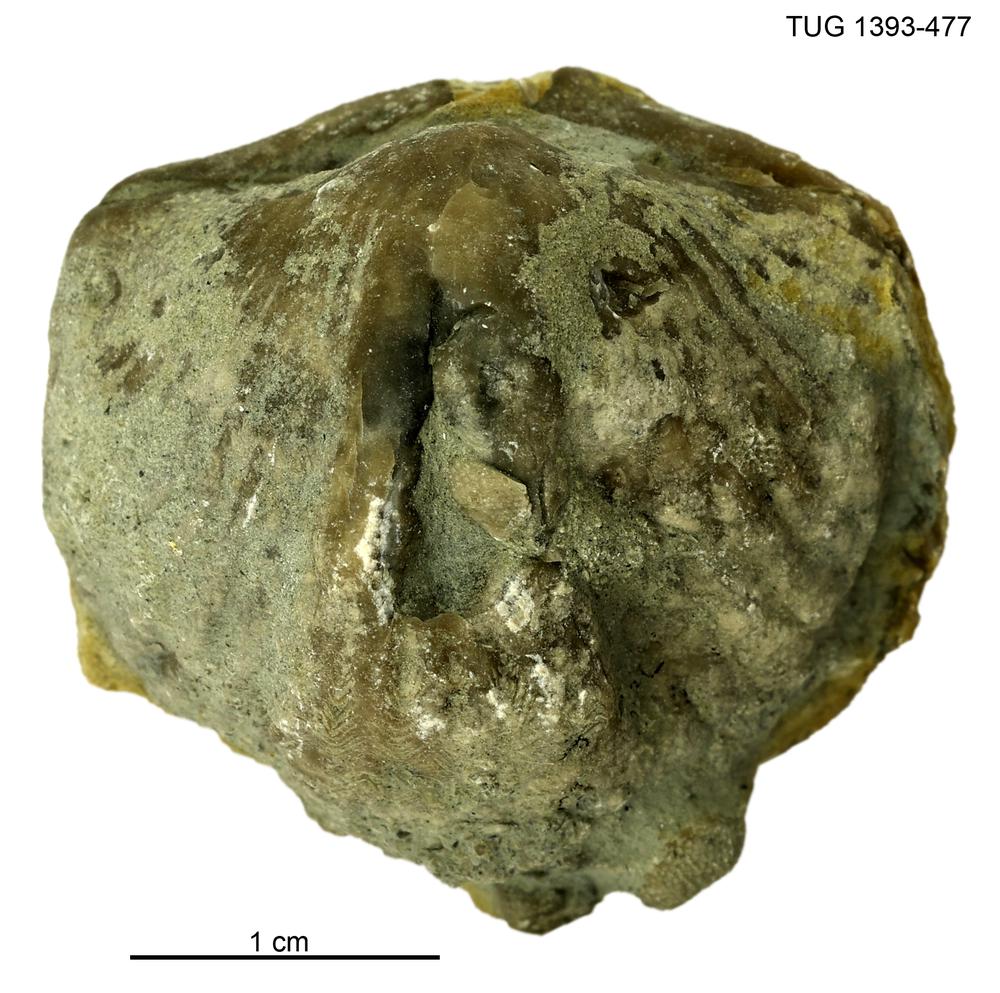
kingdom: Animalia
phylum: Brachiopoda
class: Rhynchonellata
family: Plectorthidae
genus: Platystrophia
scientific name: Platystrophia
